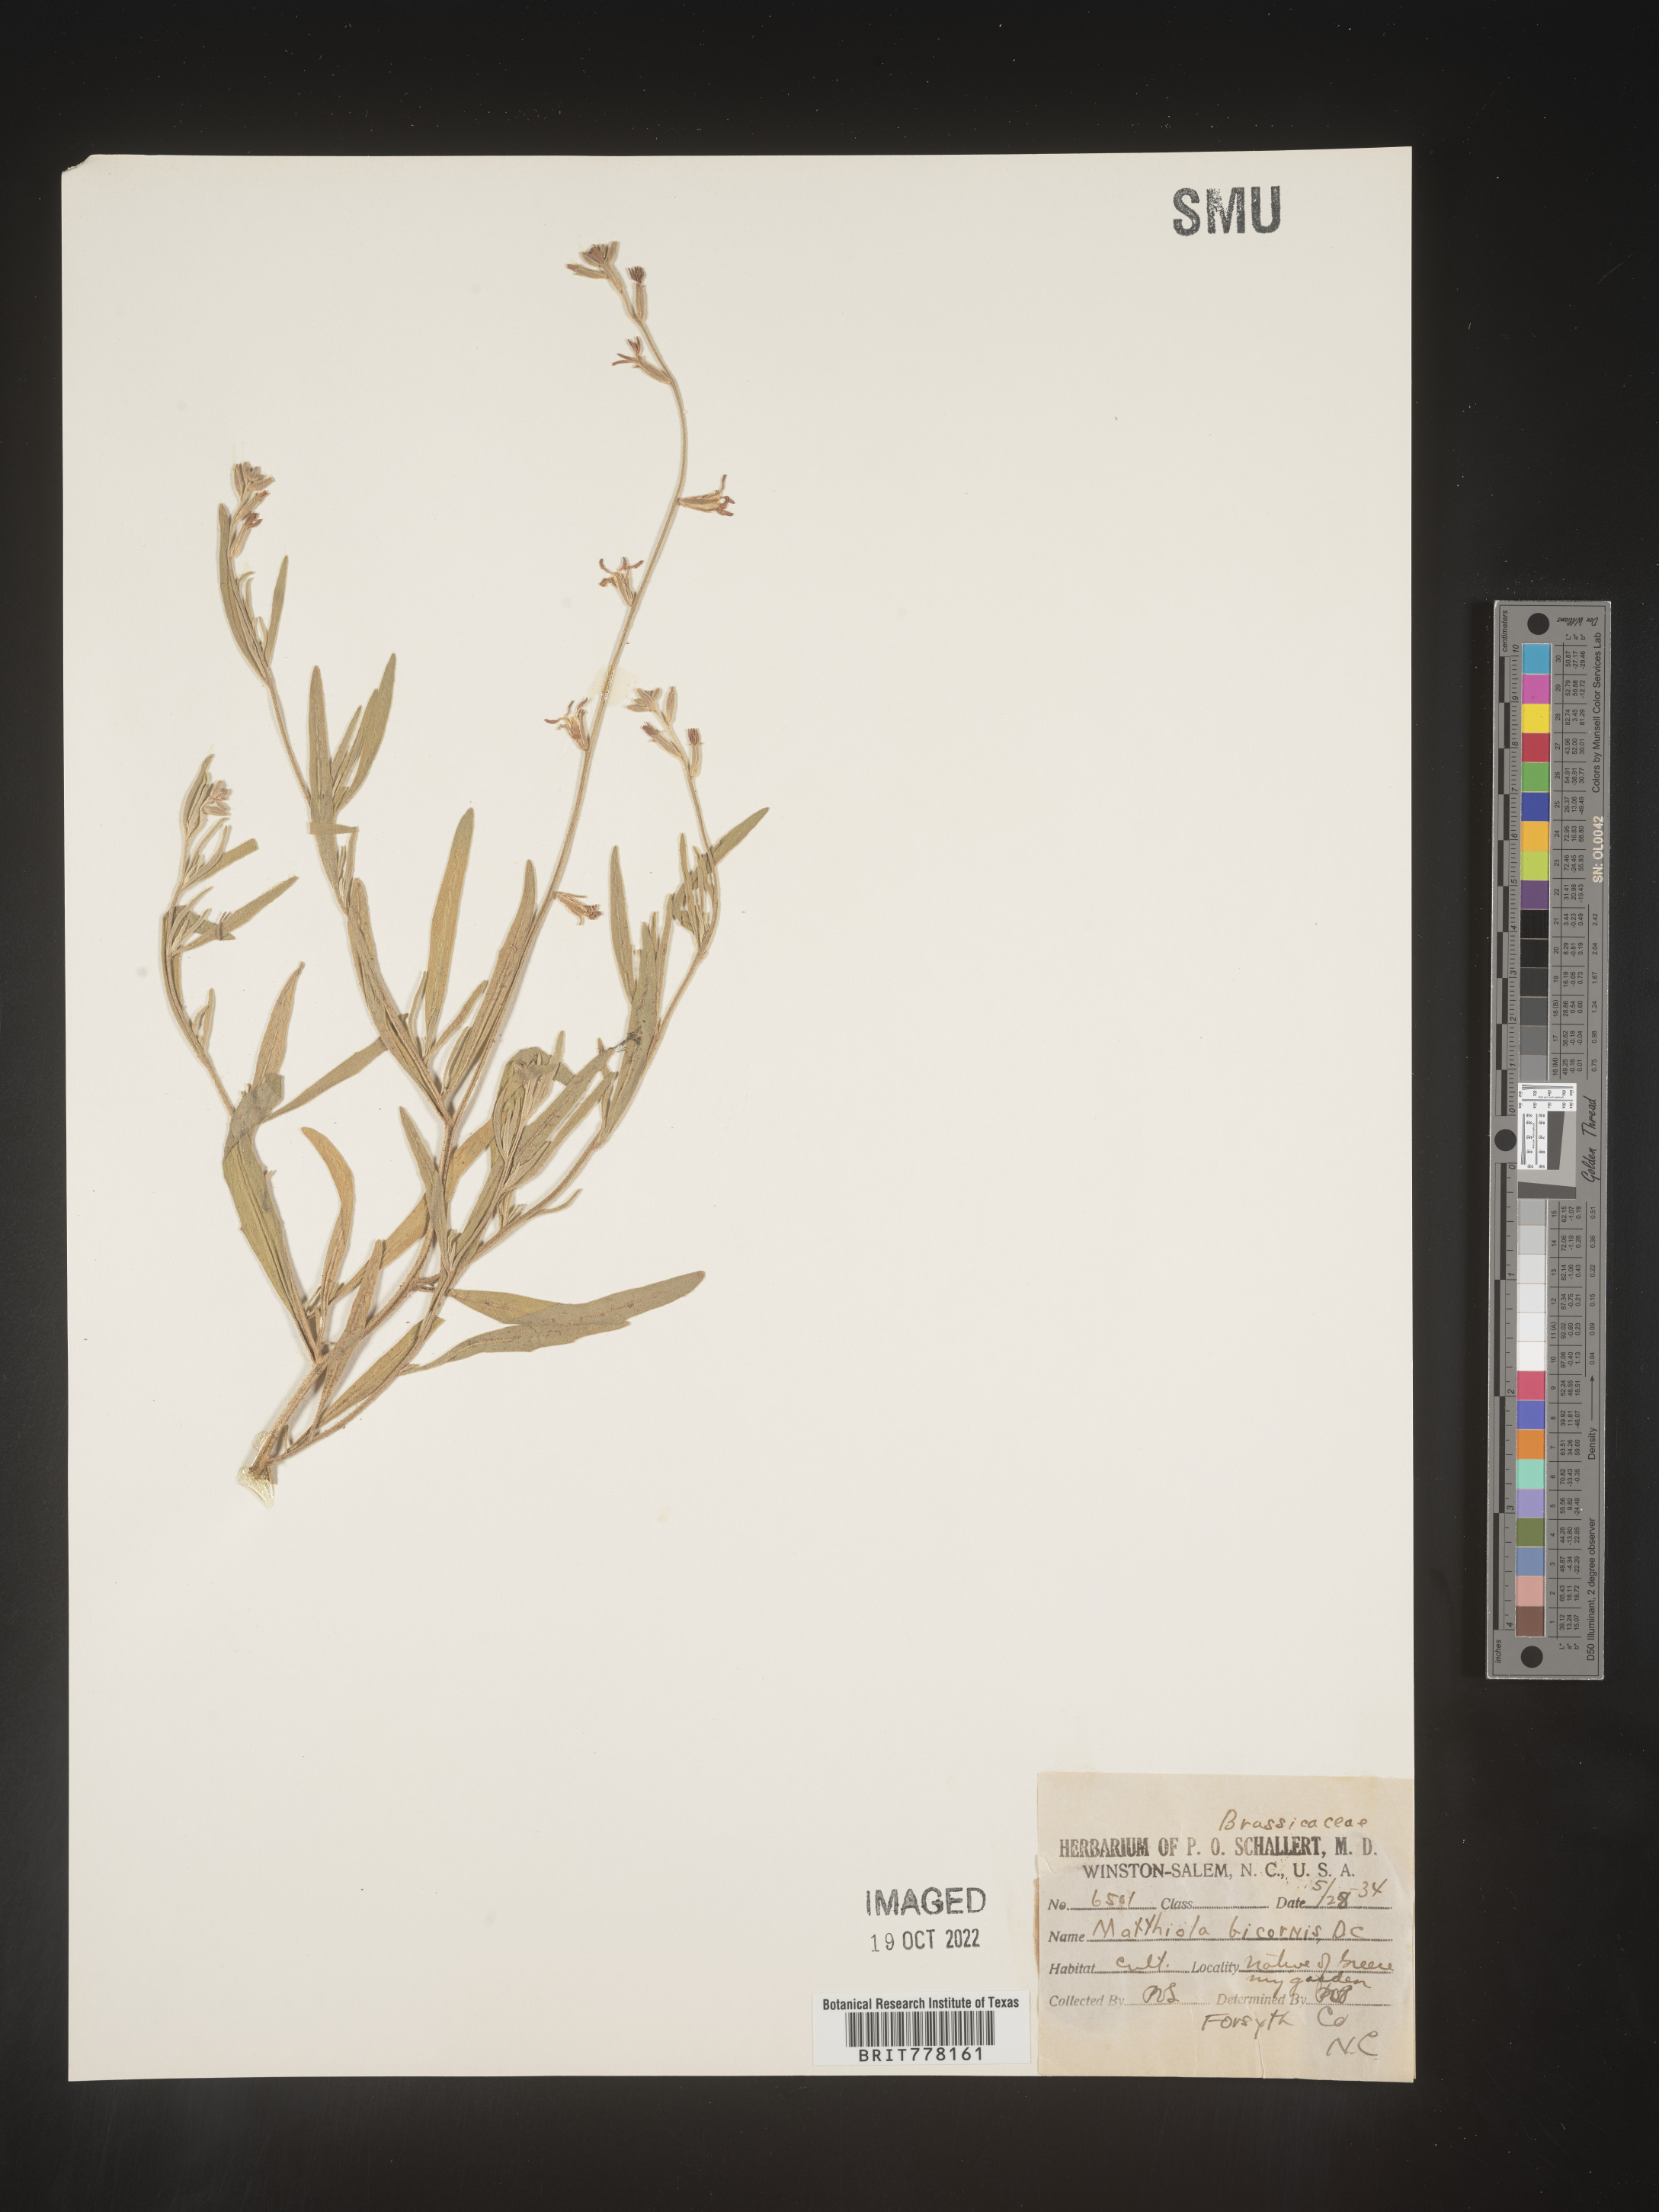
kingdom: Plantae
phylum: Tracheophyta
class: Magnoliopsida
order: Brassicales
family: Brassicaceae
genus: Matthiola
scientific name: Matthiola
